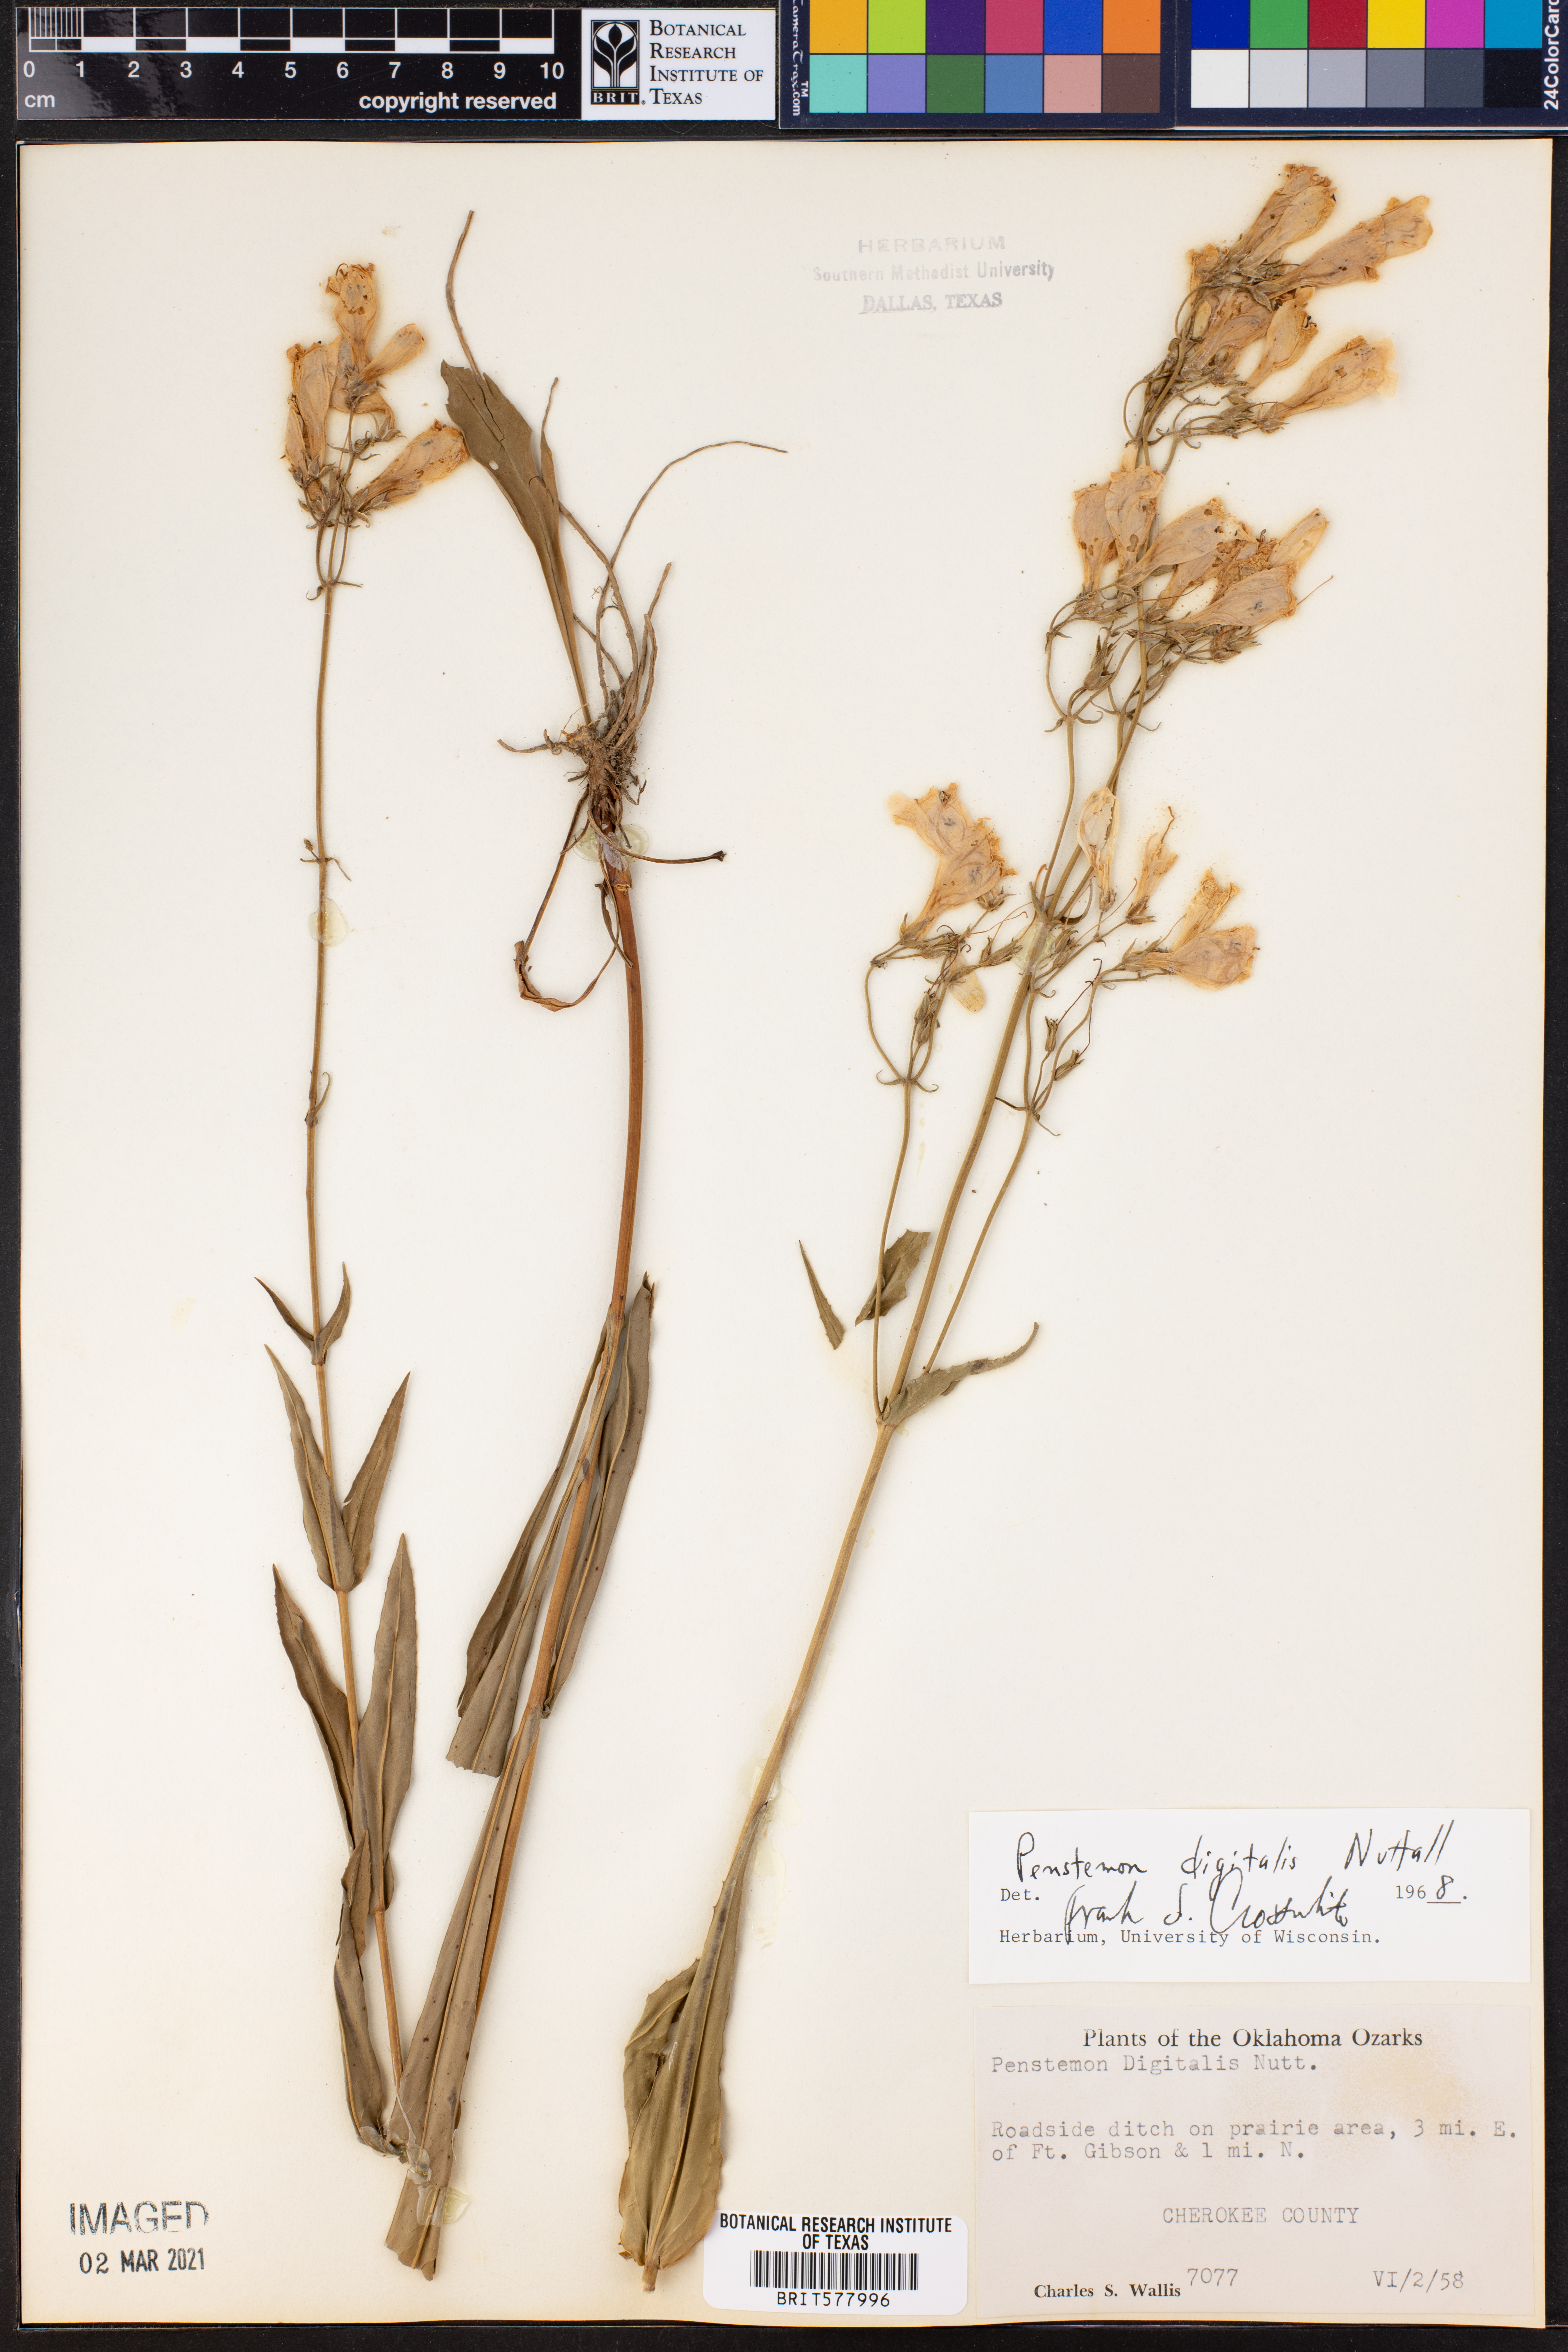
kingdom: Plantae
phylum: Tracheophyta
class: Magnoliopsida
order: Lamiales
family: Plantaginaceae
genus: Penstemon
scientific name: Penstemon digitalis
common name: Foxglove beardtongue
